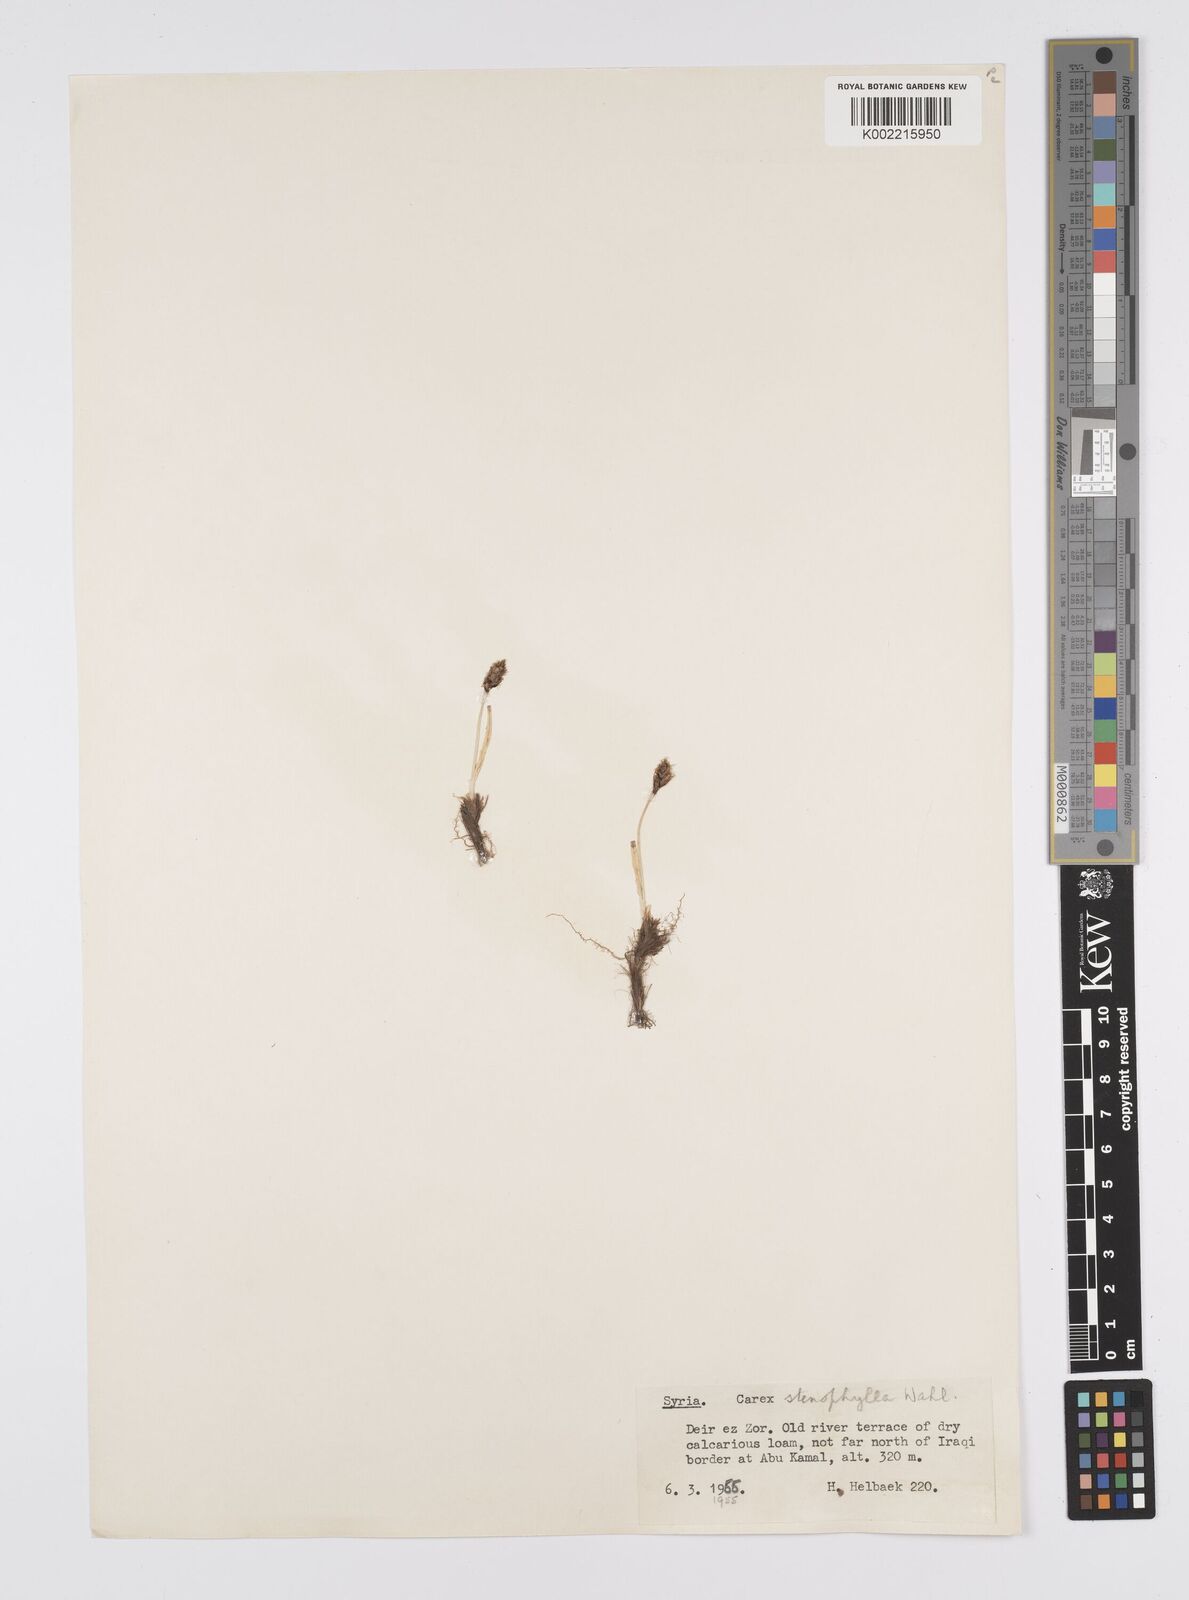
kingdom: Plantae
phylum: Tracheophyta
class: Liliopsida
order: Poales
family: Cyperaceae
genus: Carex
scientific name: Carex pachystylis
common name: Thick-stem sedge
